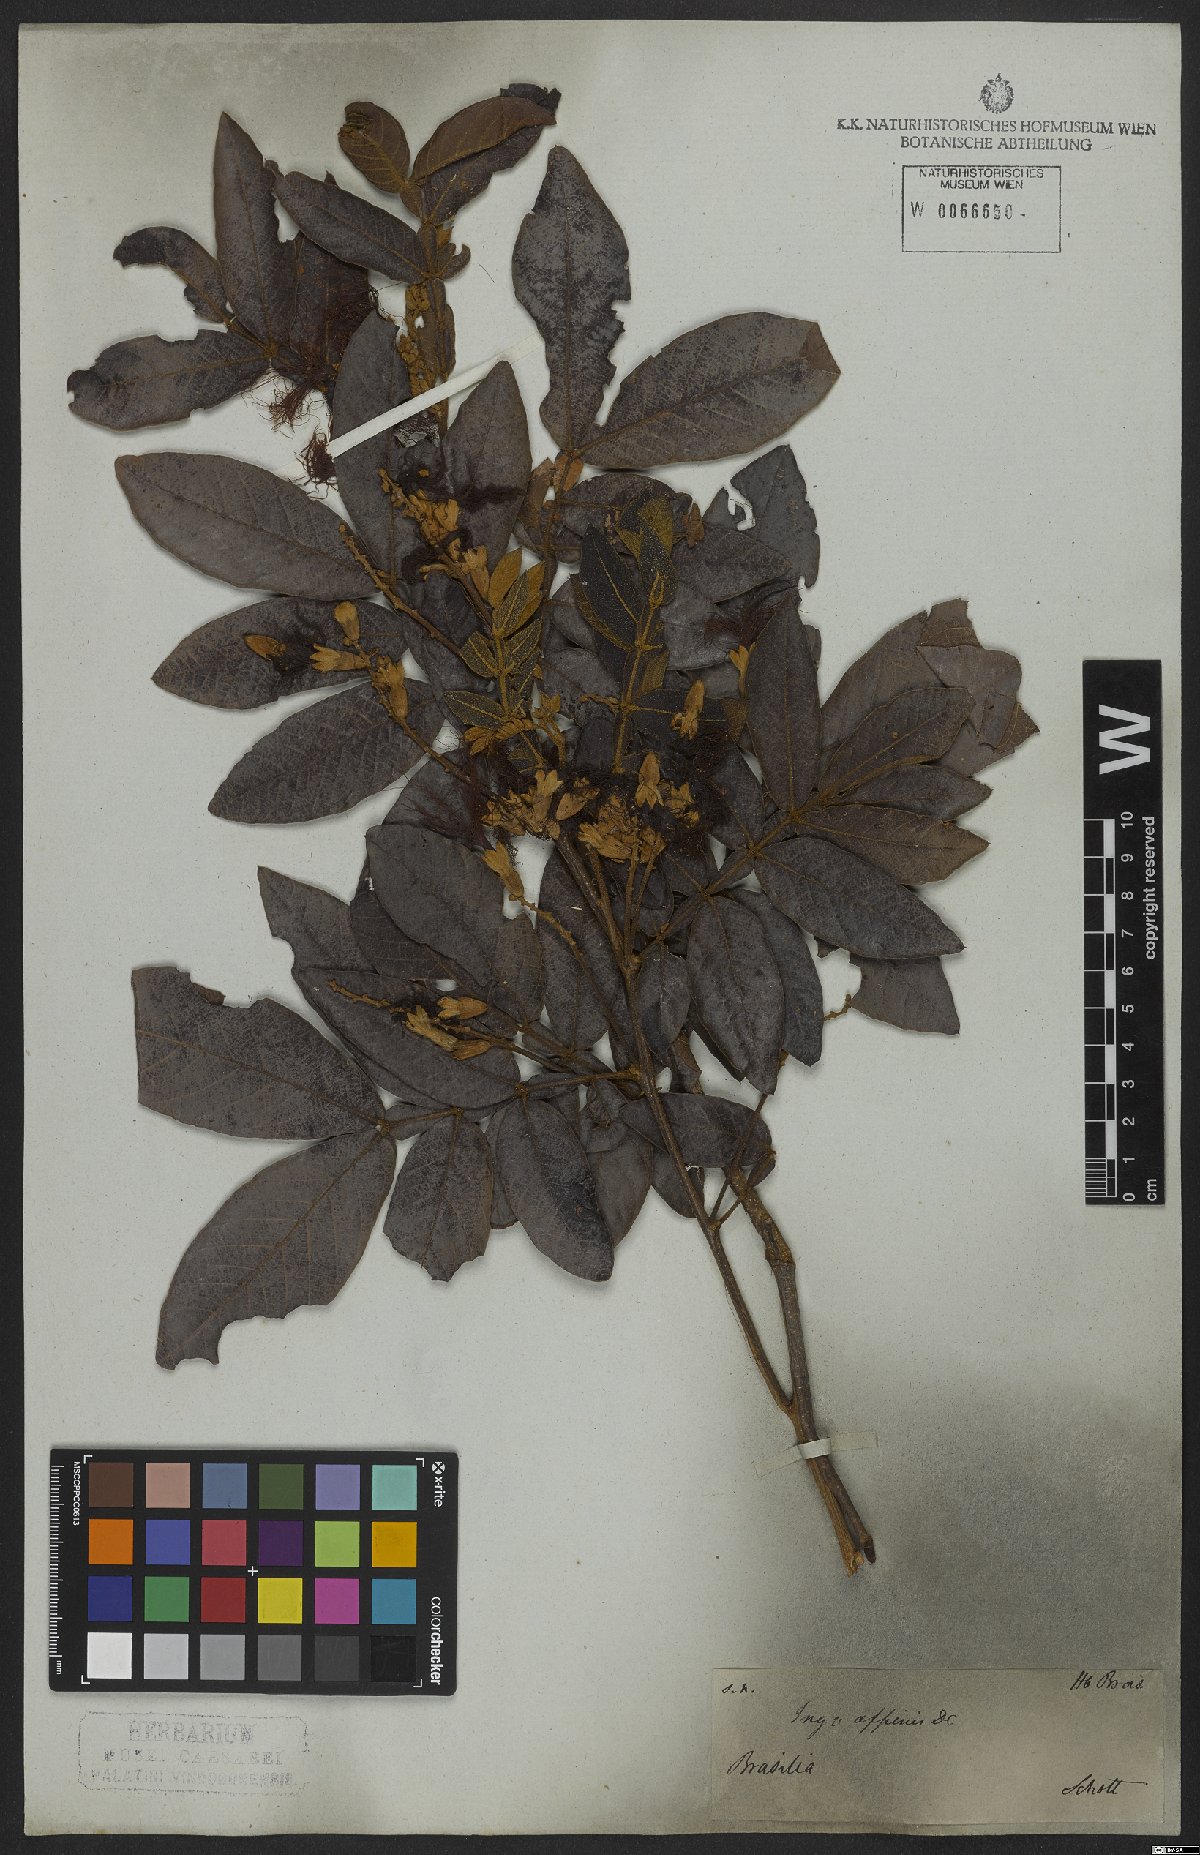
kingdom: Plantae
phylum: Tracheophyta
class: Magnoliopsida
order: Fabales
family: Fabaceae
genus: Inga
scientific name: Inga pilosula
